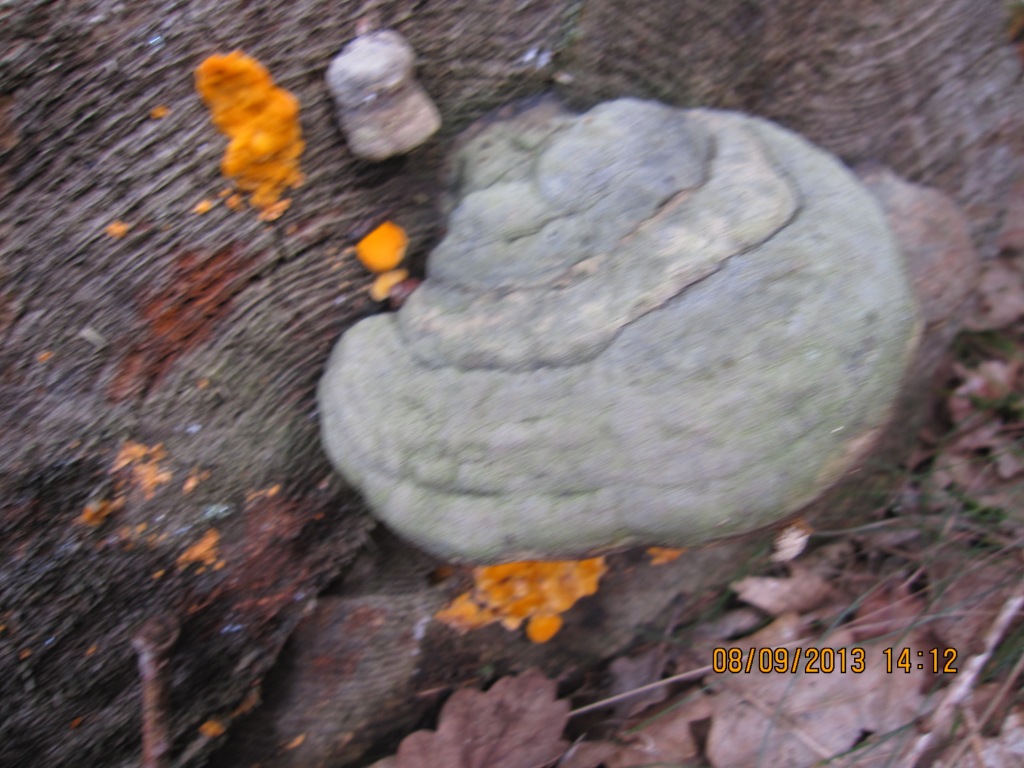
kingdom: Fungi
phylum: Basidiomycota
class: Agaricomycetes
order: Polyporales
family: Pycnoporellaceae
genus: Pycnoporellus
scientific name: Pycnoporellus fulgens
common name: flammeporesvamp
